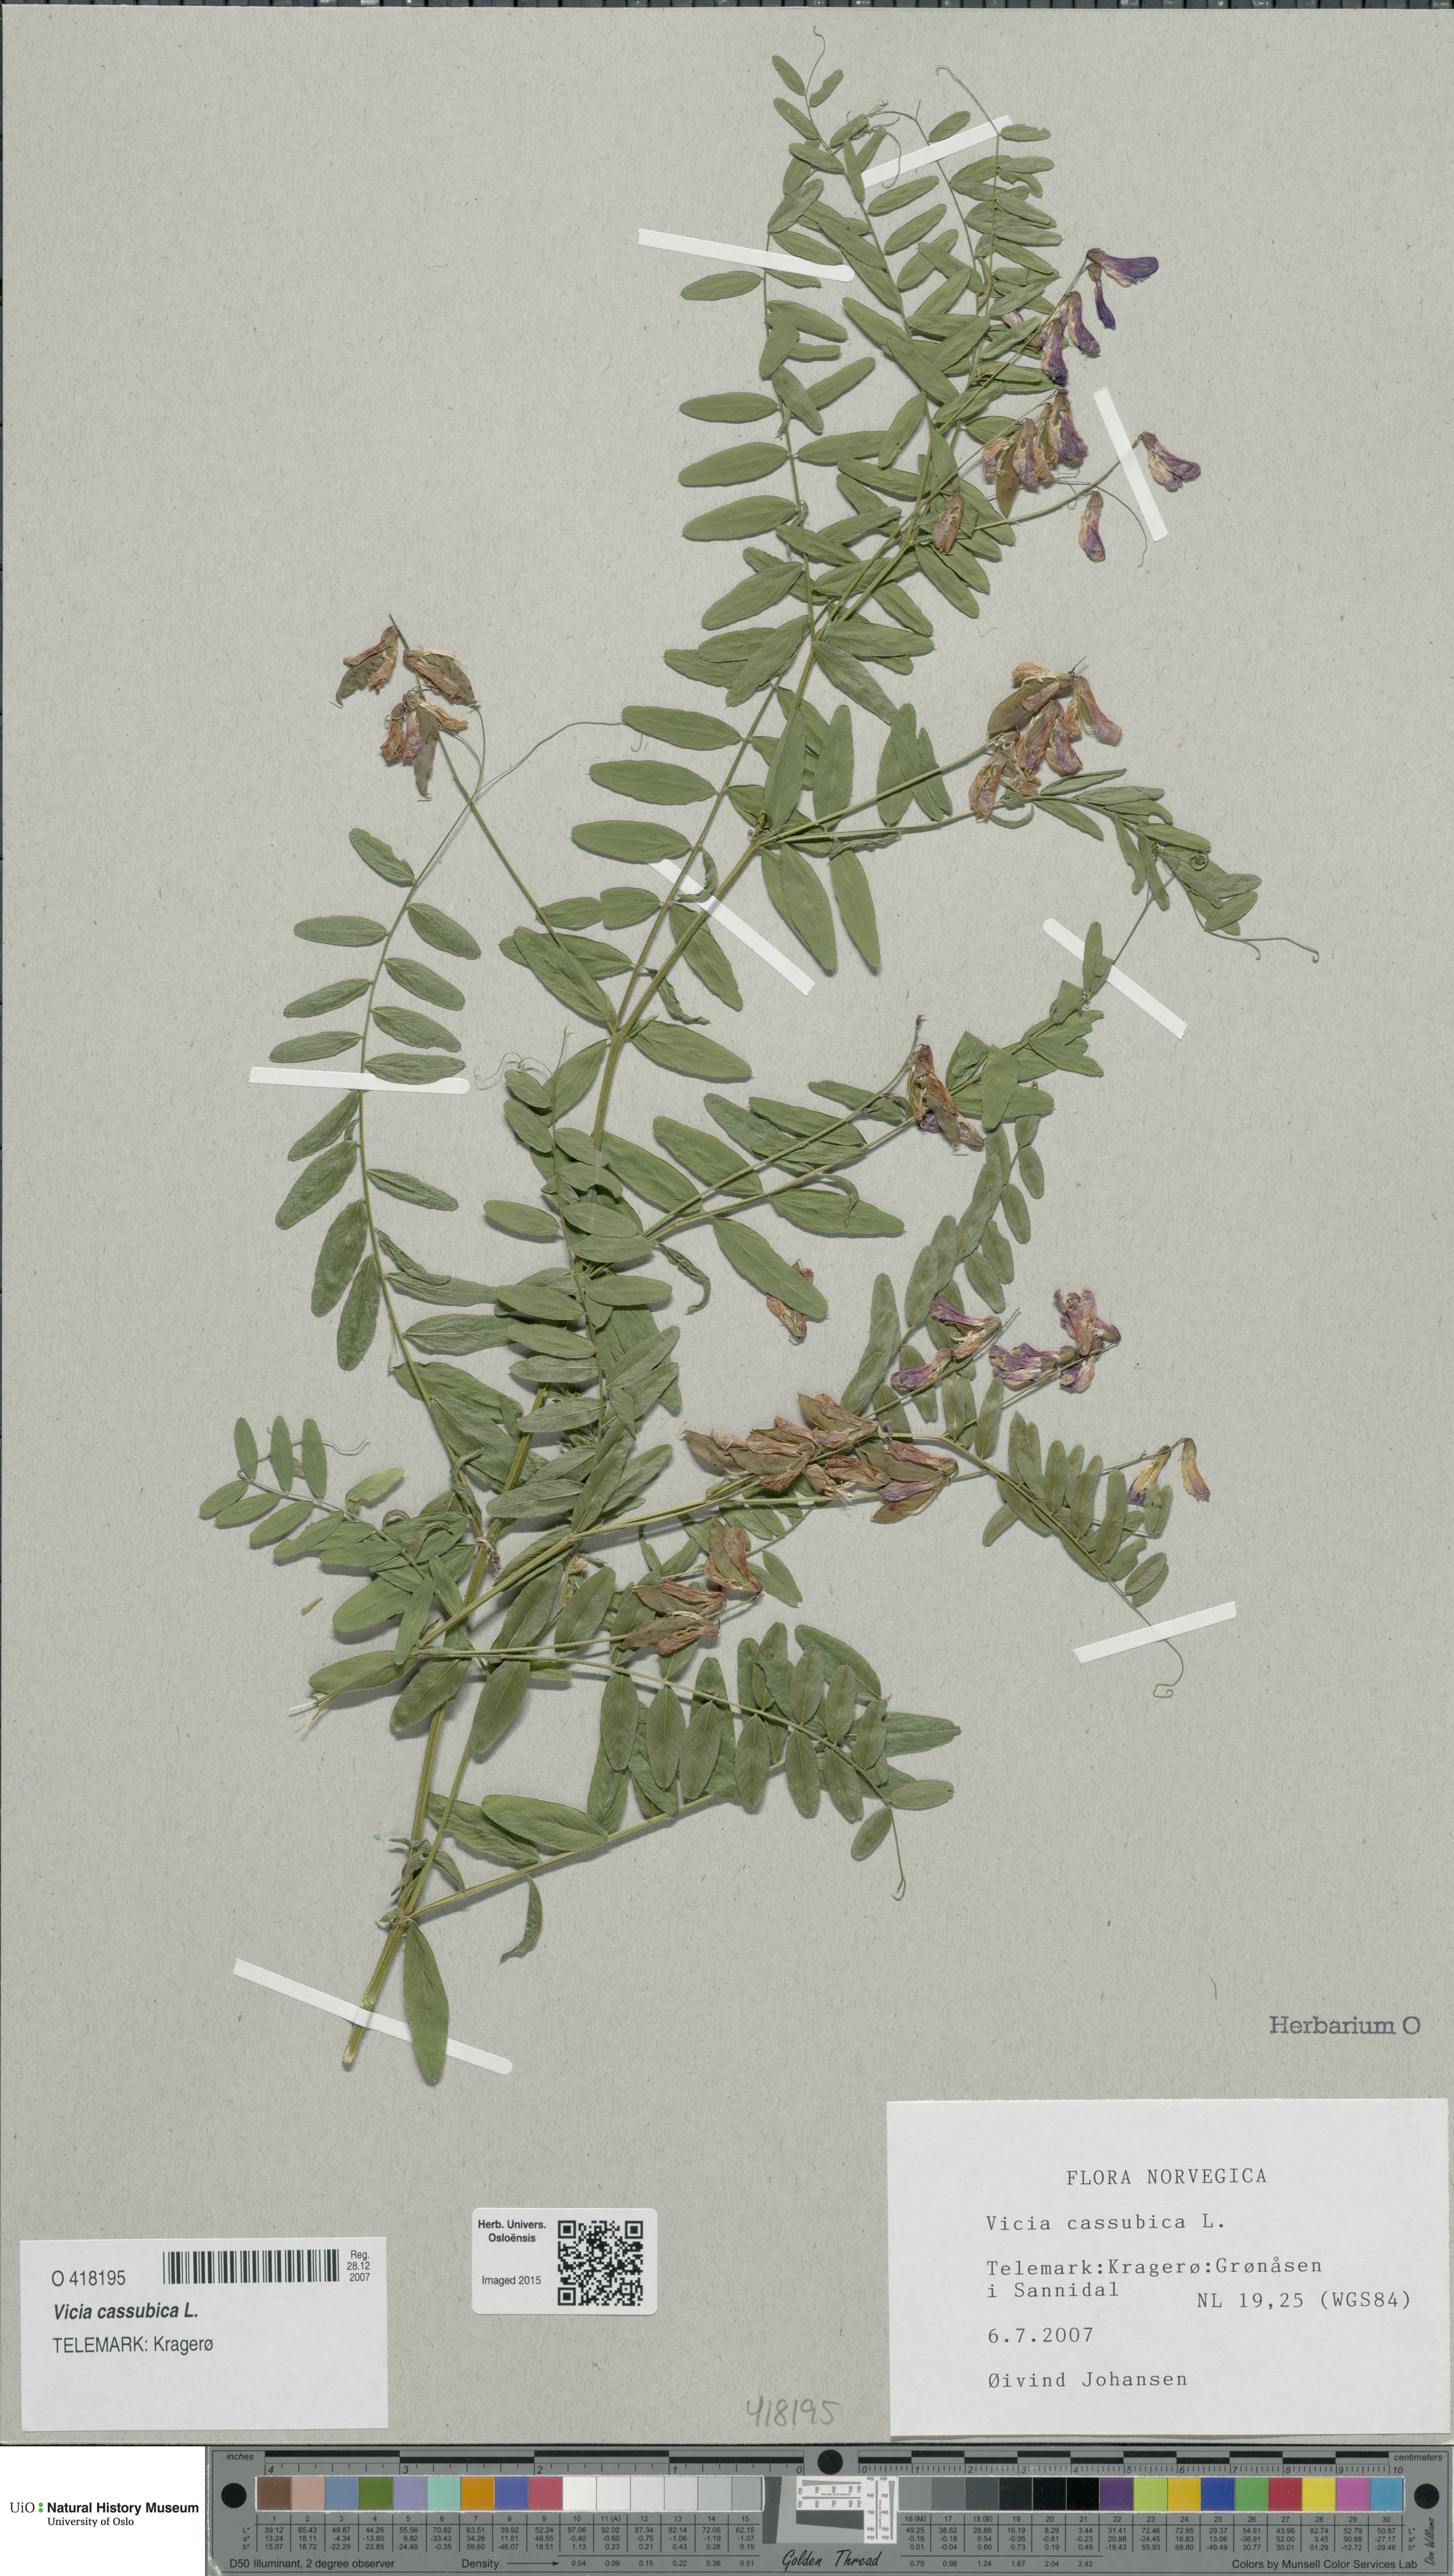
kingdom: Plantae
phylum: Tracheophyta
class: Magnoliopsida
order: Fabales
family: Fabaceae
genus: Vicia
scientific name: Vicia cassubica
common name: Danzig vetch
